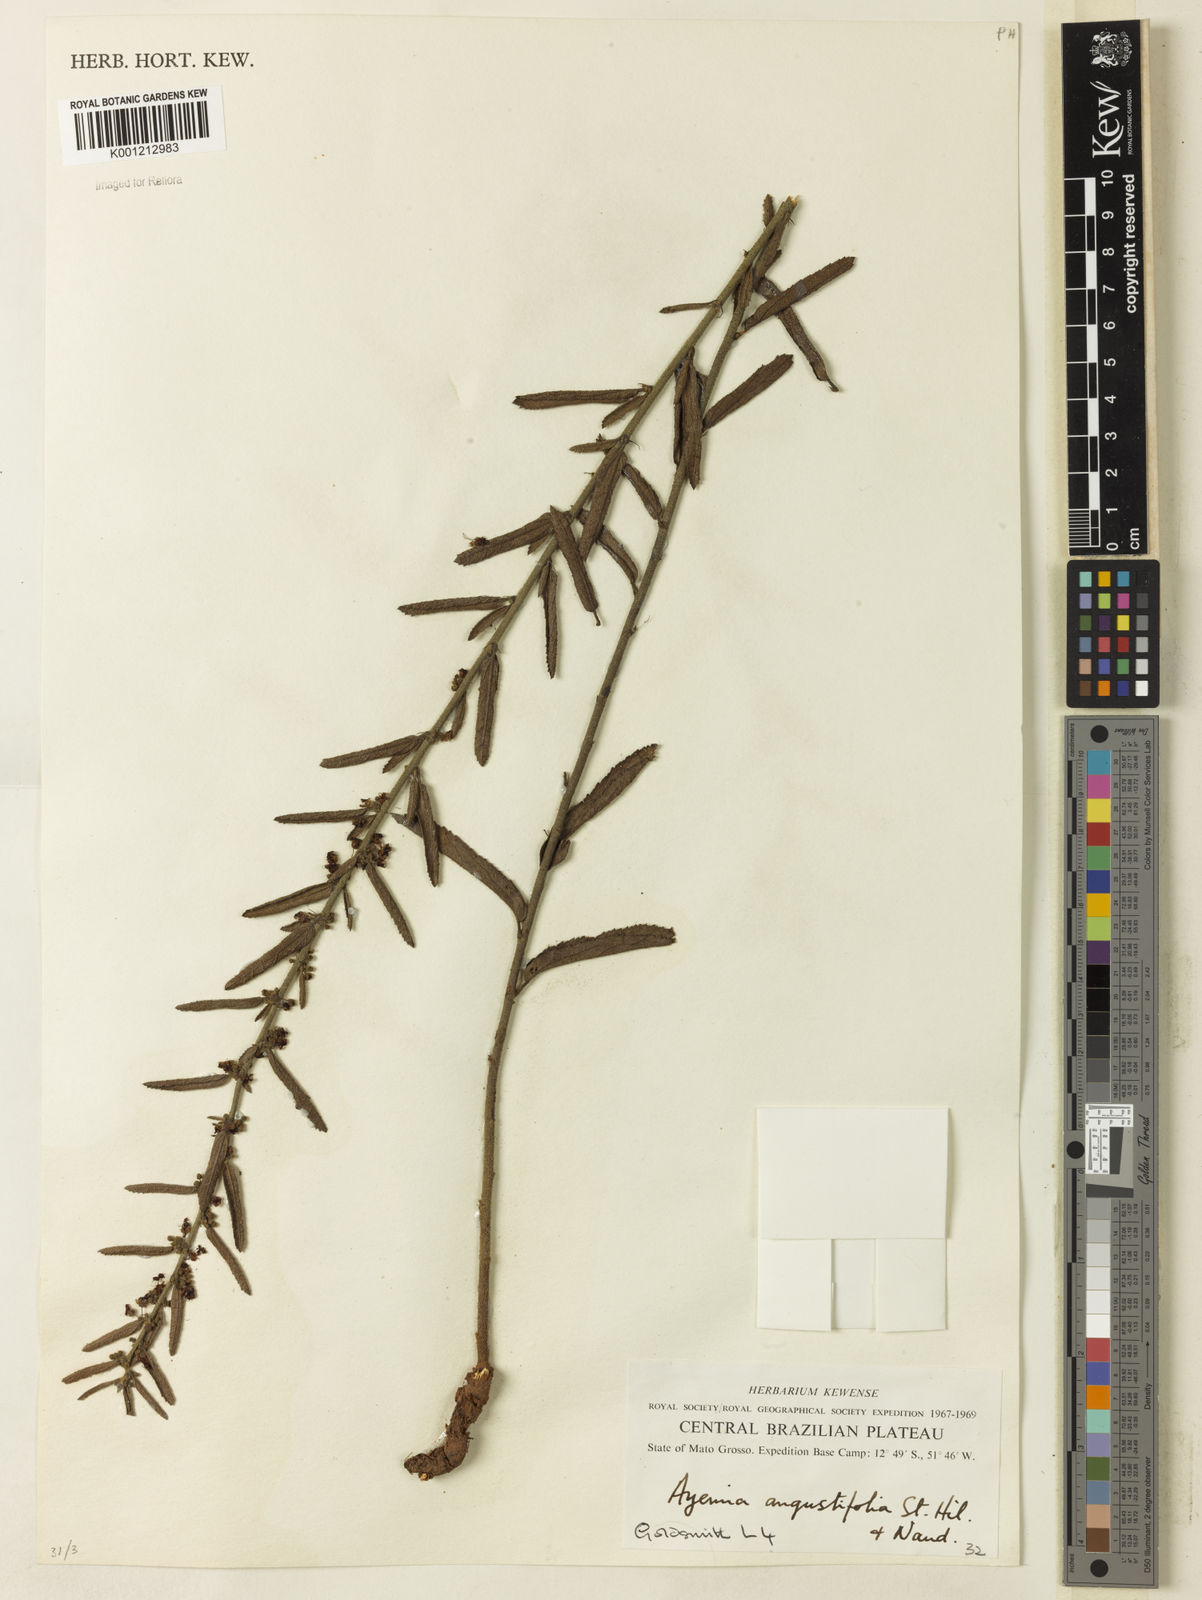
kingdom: Plantae
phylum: Tracheophyta
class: Magnoliopsida
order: Malvales
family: Malvaceae
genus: Ayenia
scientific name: Ayenia angustifolia
